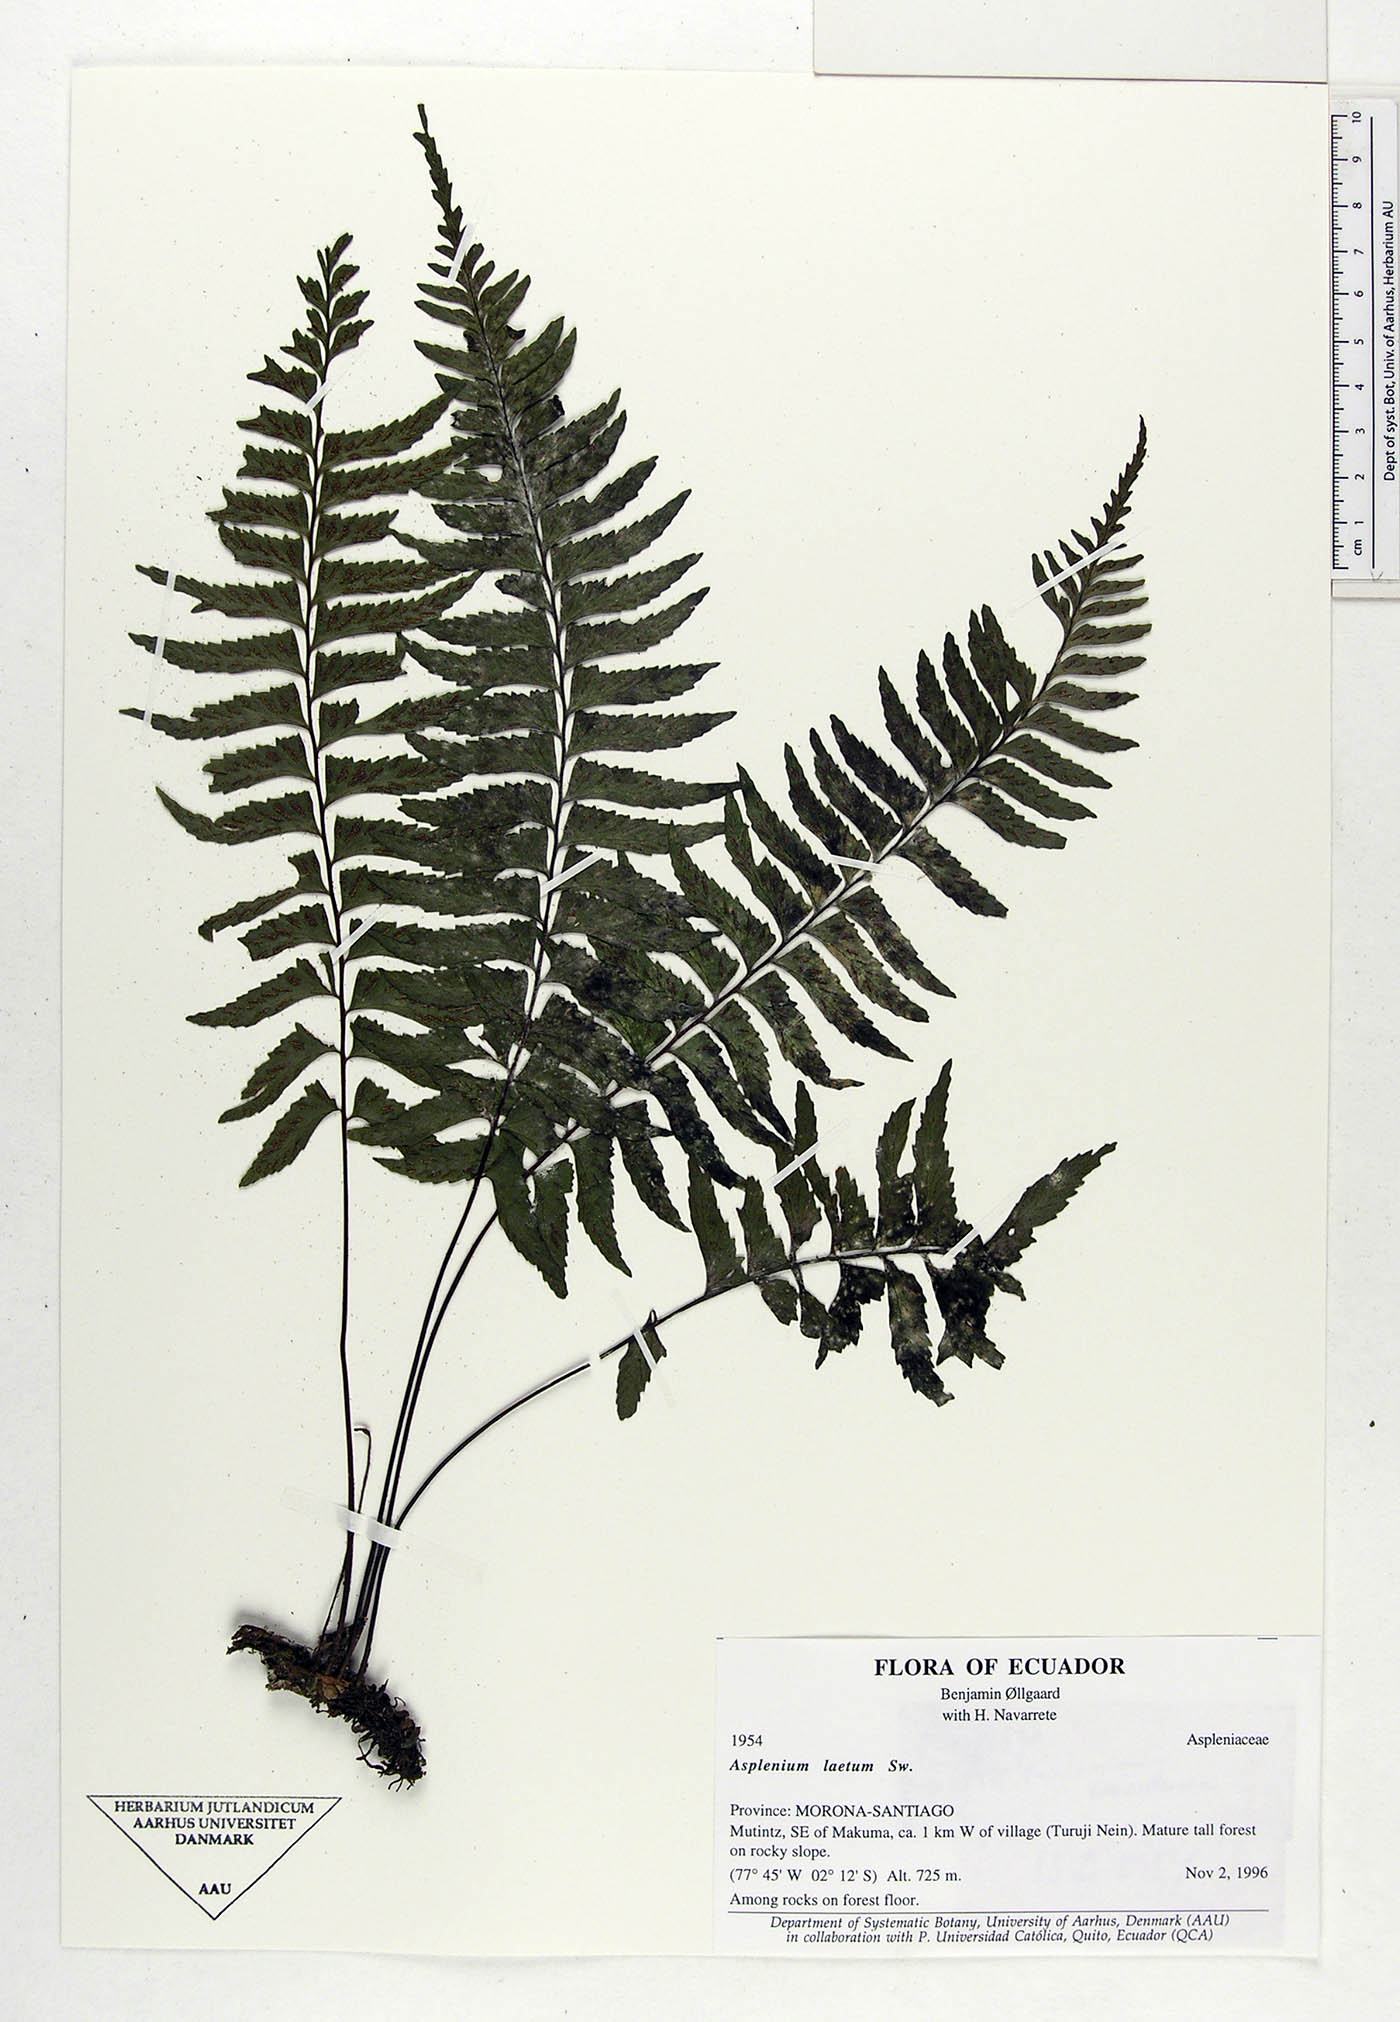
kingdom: Plantae
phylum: Tracheophyta
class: Polypodiopsida
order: Polypodiales
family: Aspleniaceae
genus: Hymenasplenium
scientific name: Hymenasplenium laetum
